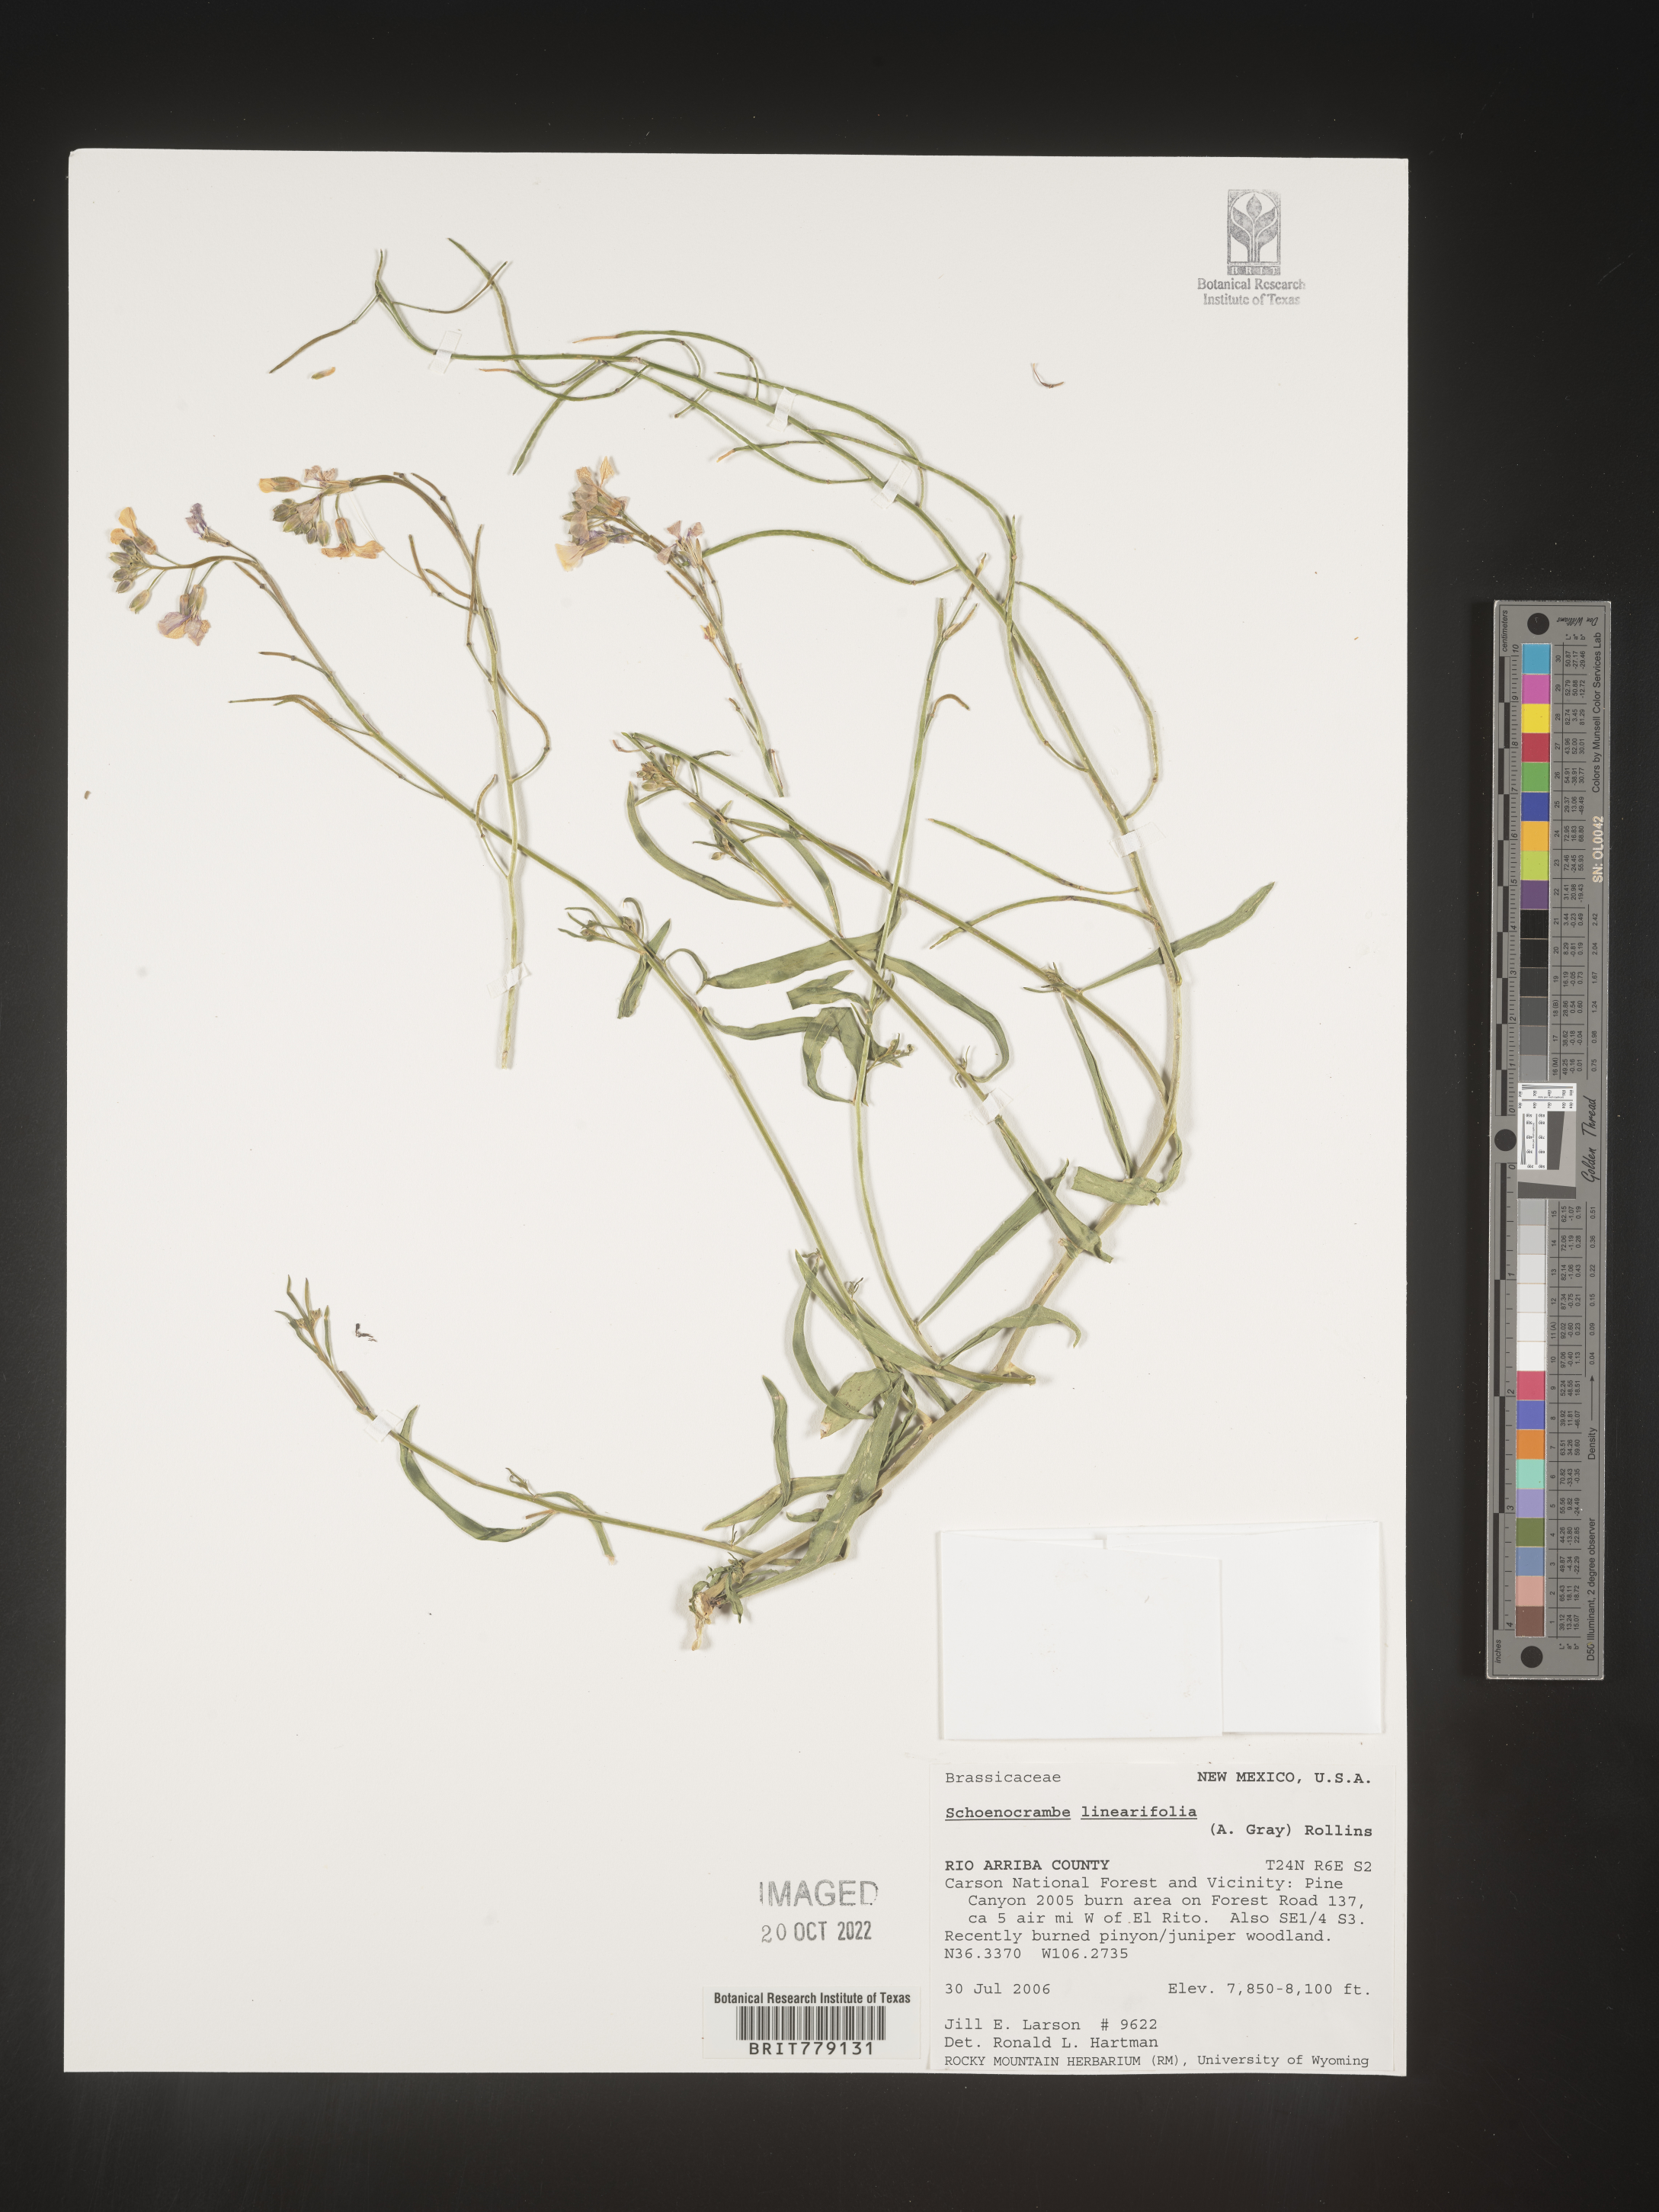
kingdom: Plantae
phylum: Tracheophyta
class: Magnoliopsida
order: Brassicales
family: Brassicaceae
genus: Hesperidanthus
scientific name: Hesperidanthus
